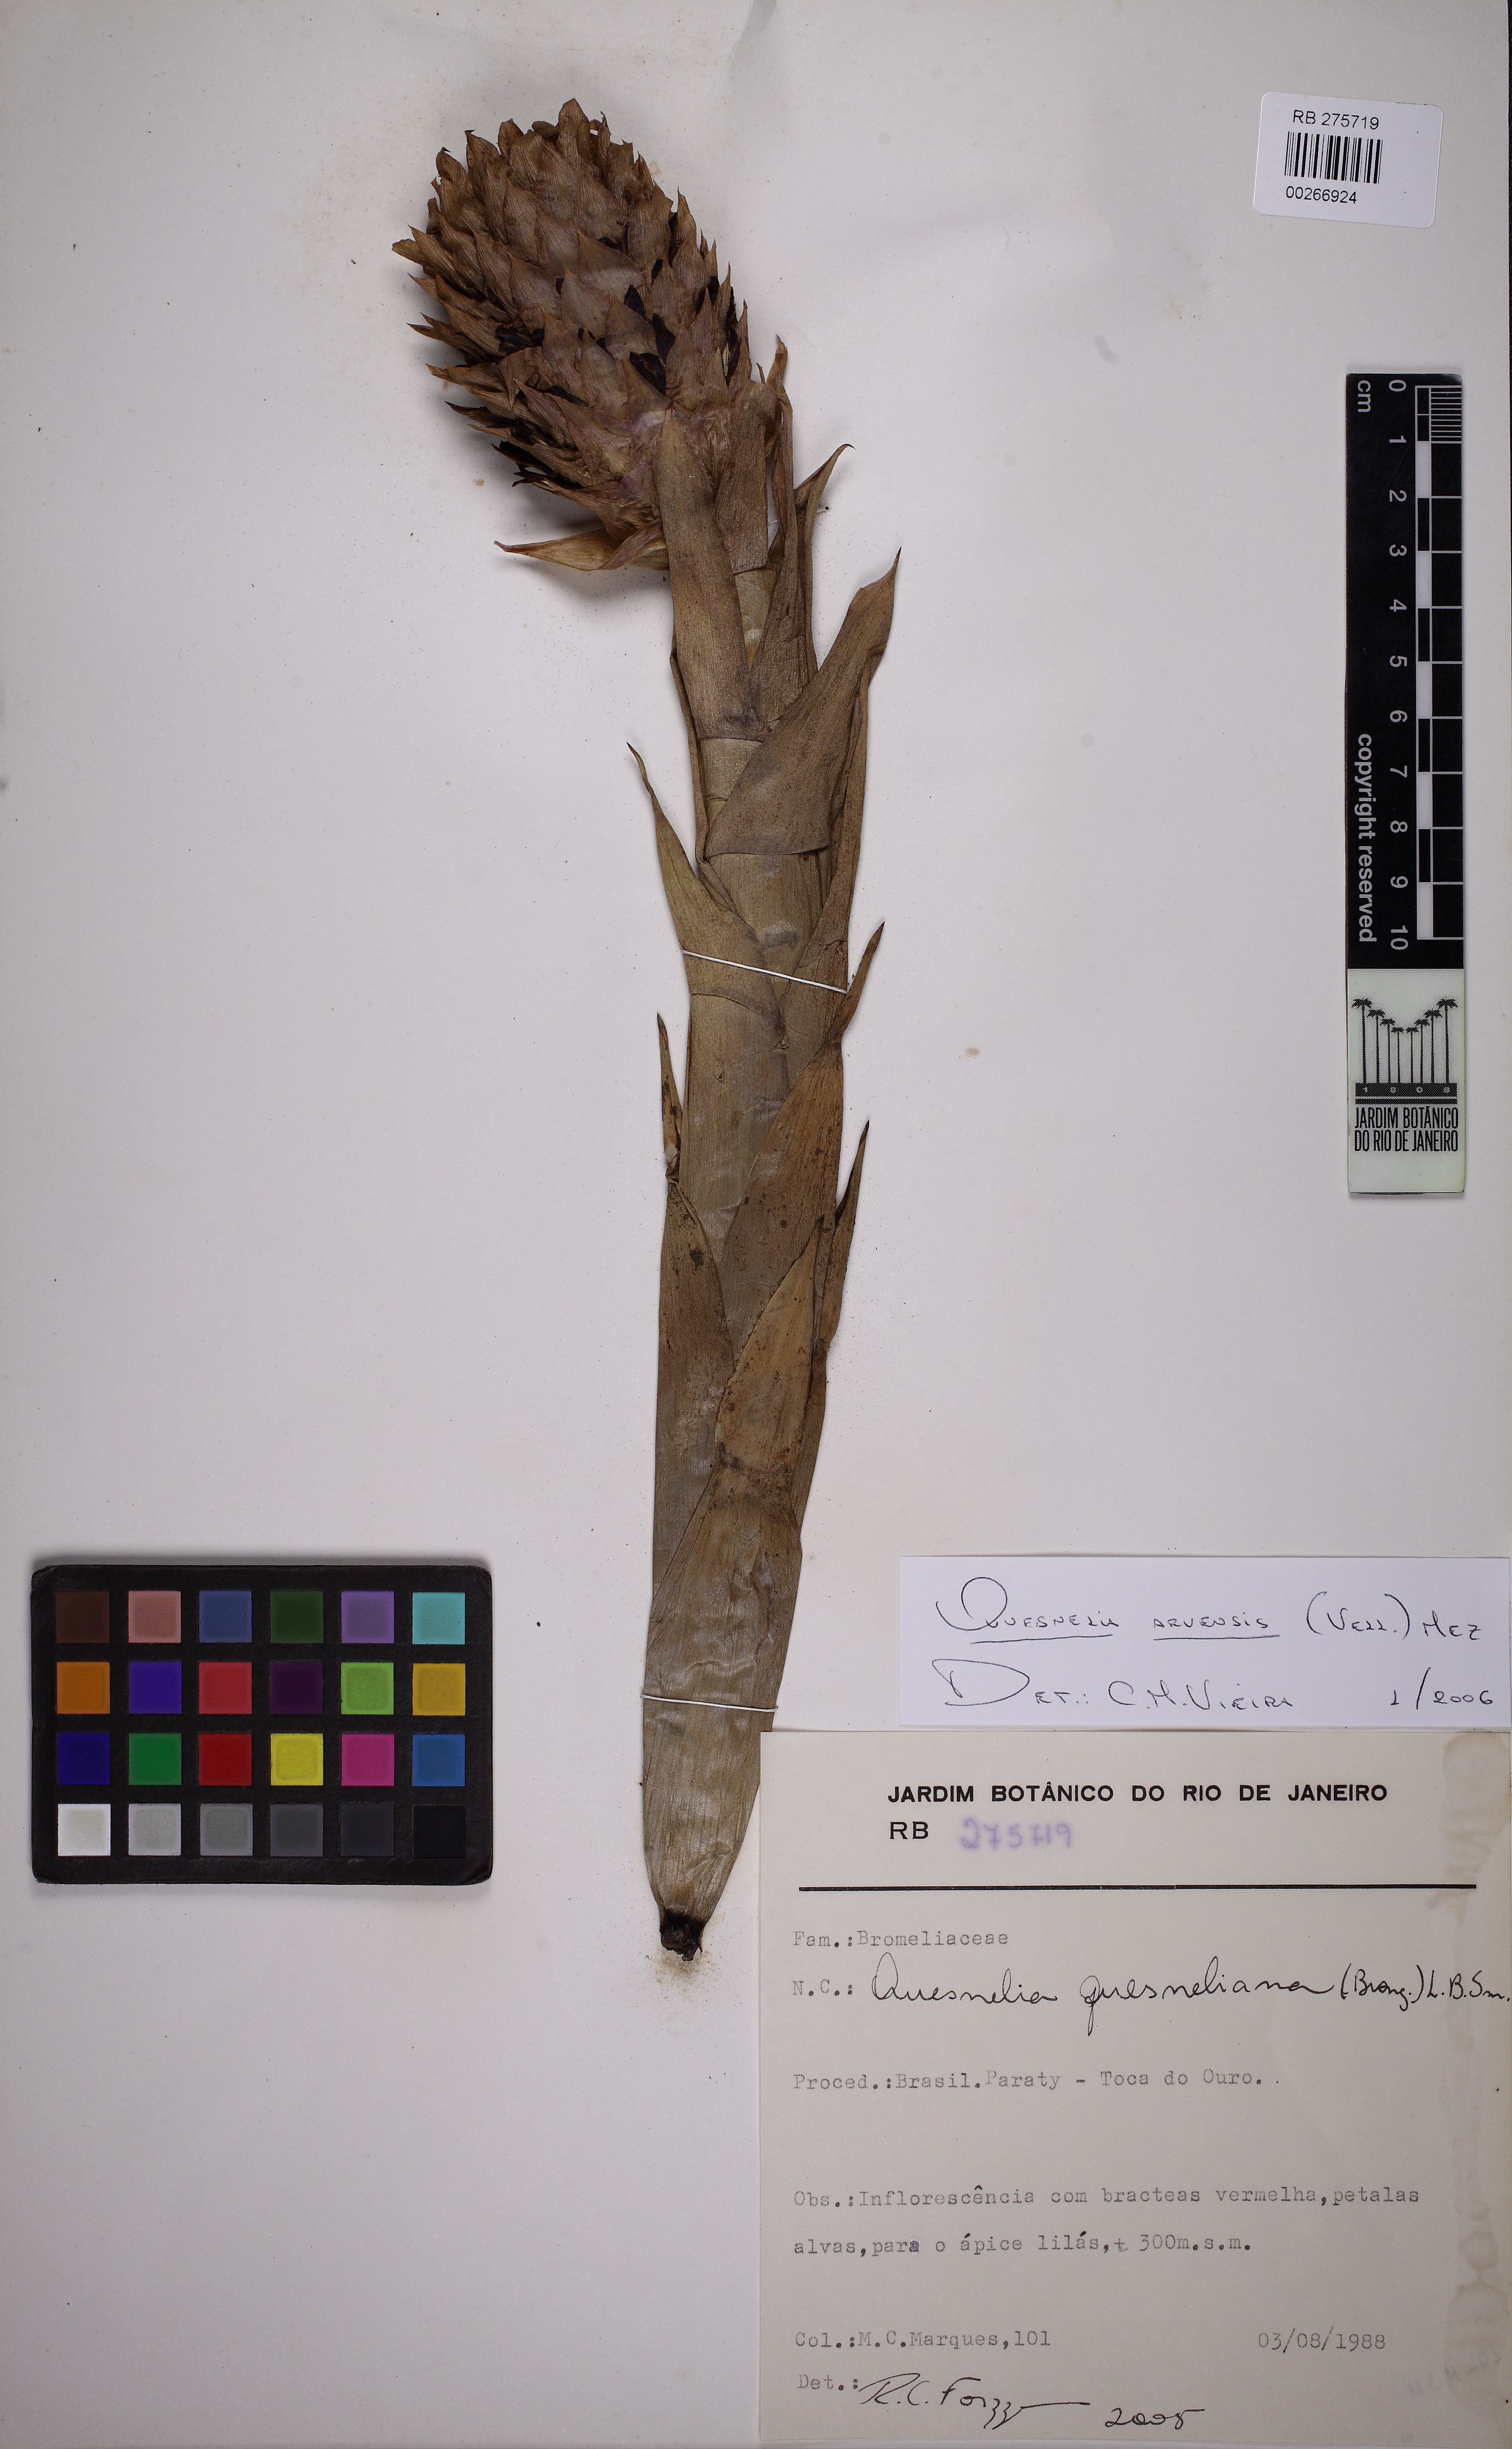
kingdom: Plantae
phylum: Tracheophyta
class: Liliopsida
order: Poales
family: Bromeliaceae
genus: Quesnelia
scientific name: Quesnelia arvensis
